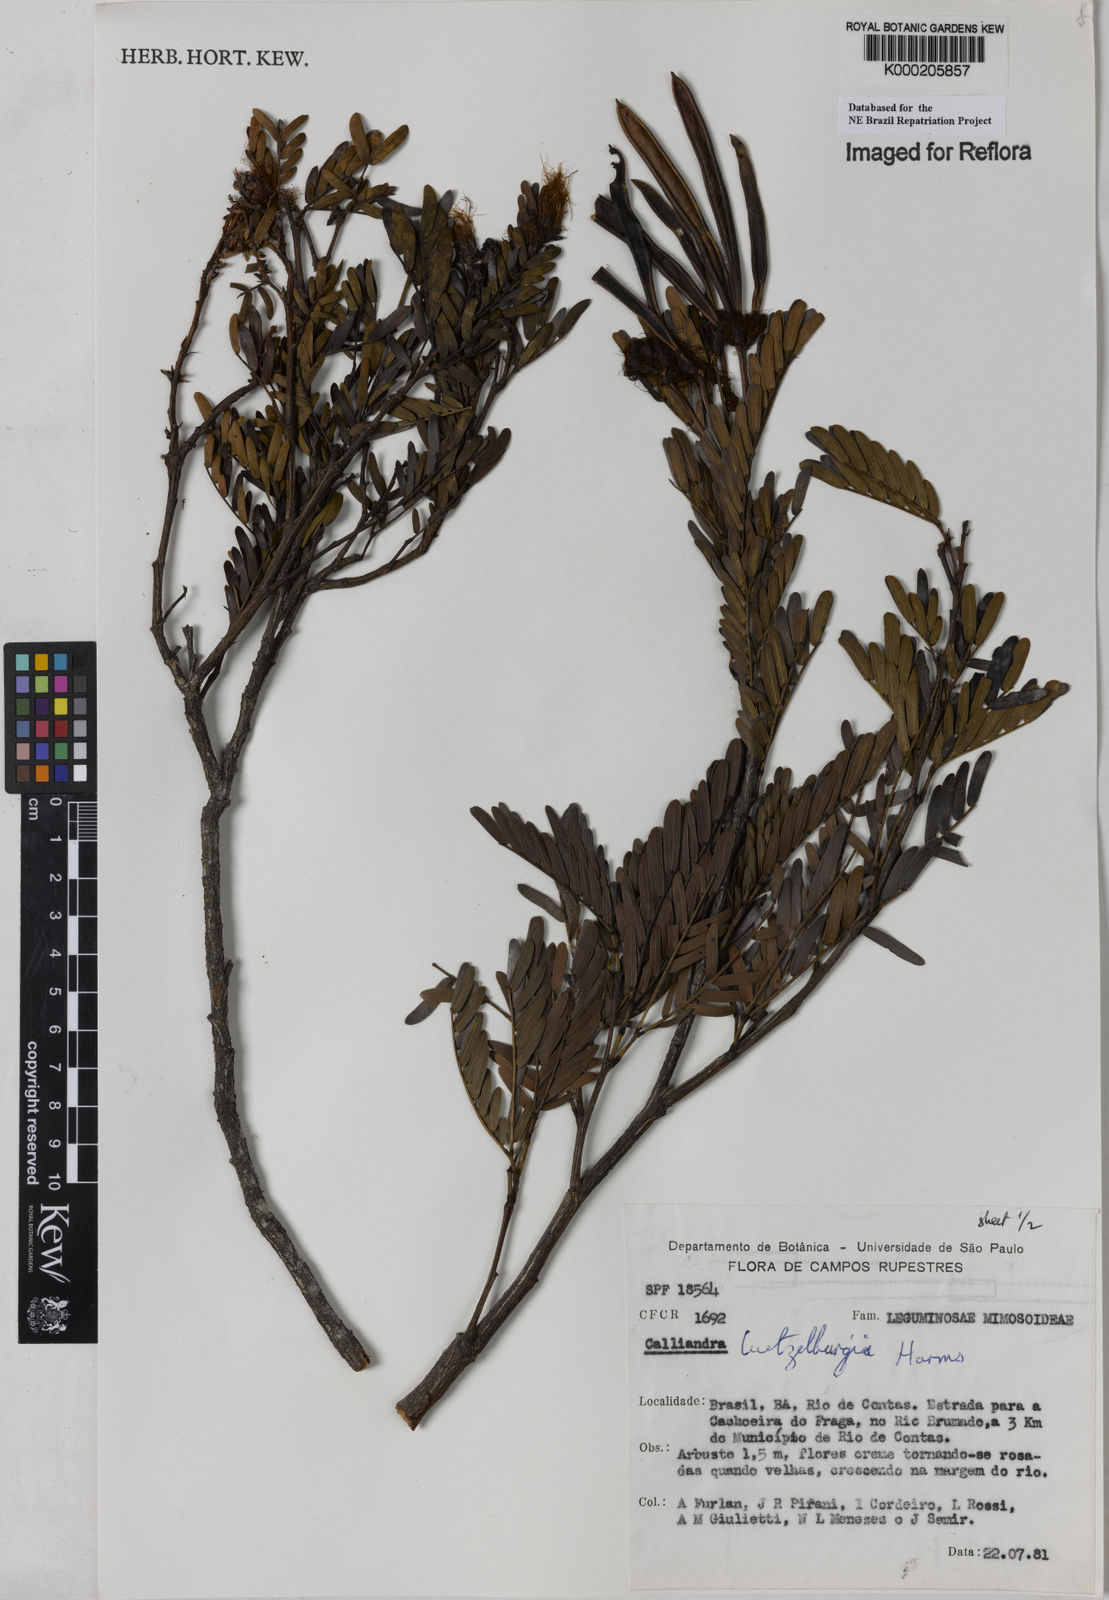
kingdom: Plantae
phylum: Tracheophyta
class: Magnoliopsida
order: Fabales
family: Fabaceae
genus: Calliandra
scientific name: Calliandra luetzelburgii
